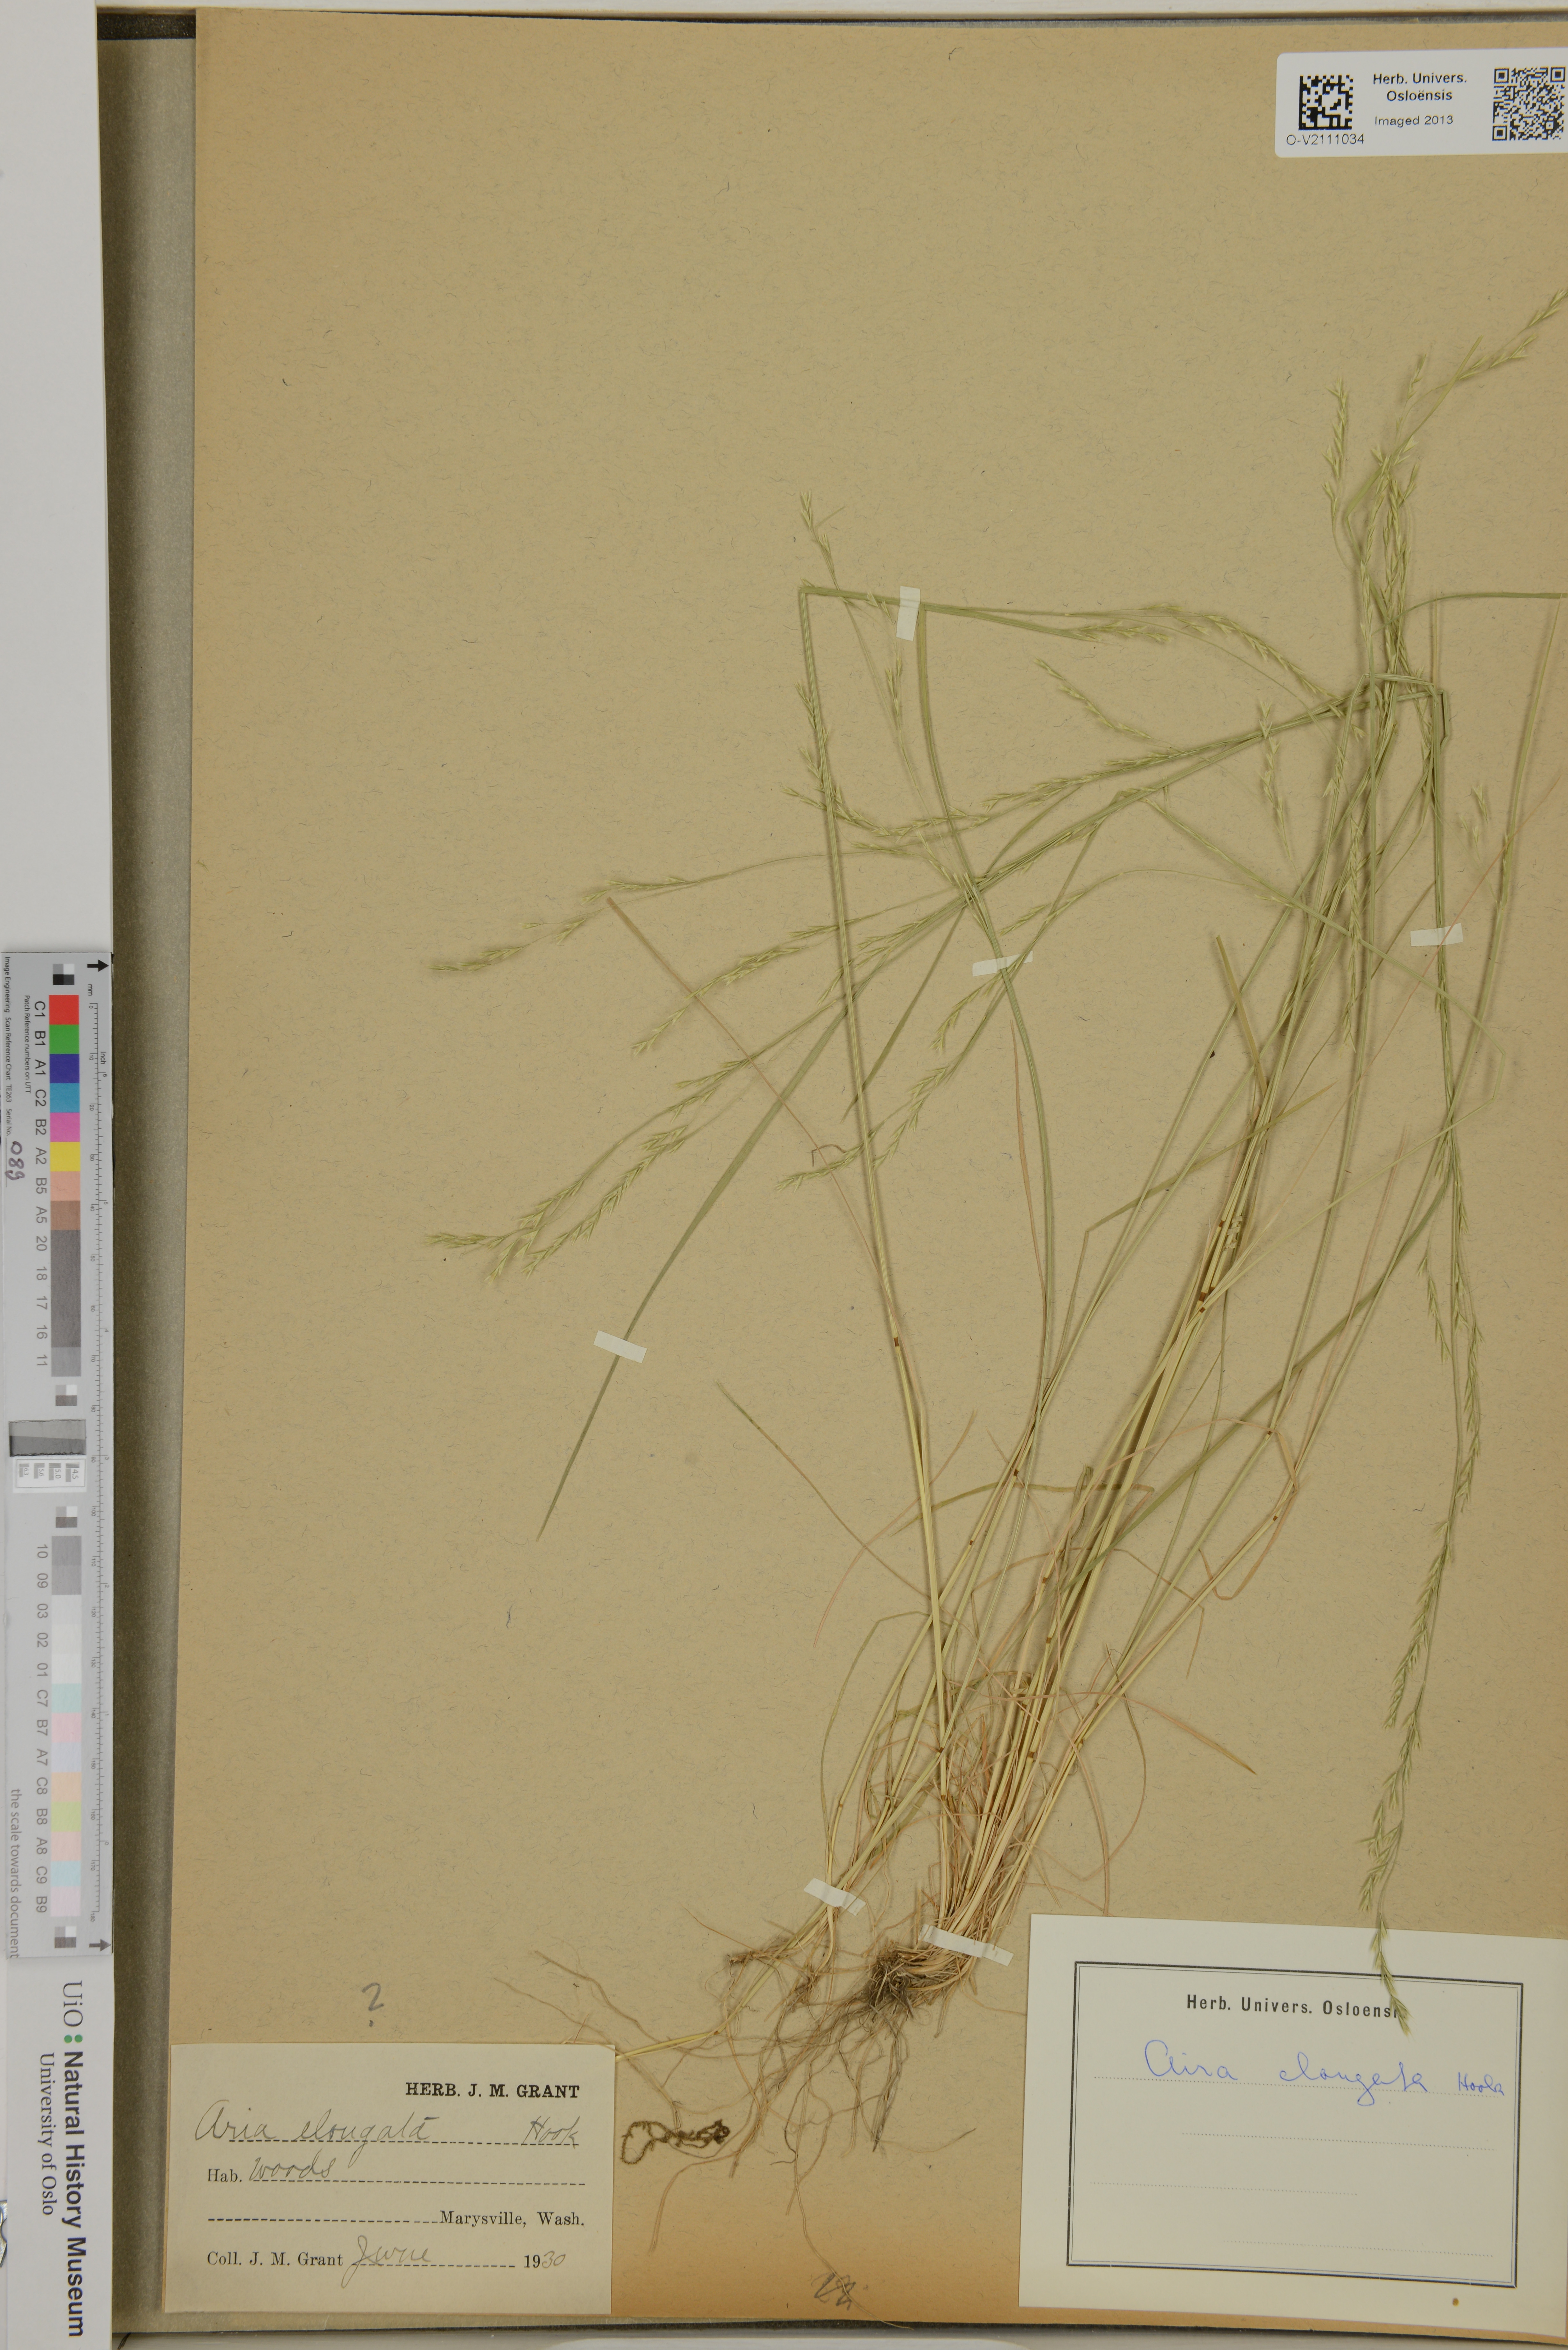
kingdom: Plantae
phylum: Tracheophyta
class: Liliopsida
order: Poales
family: Poaceae
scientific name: Poaceae
